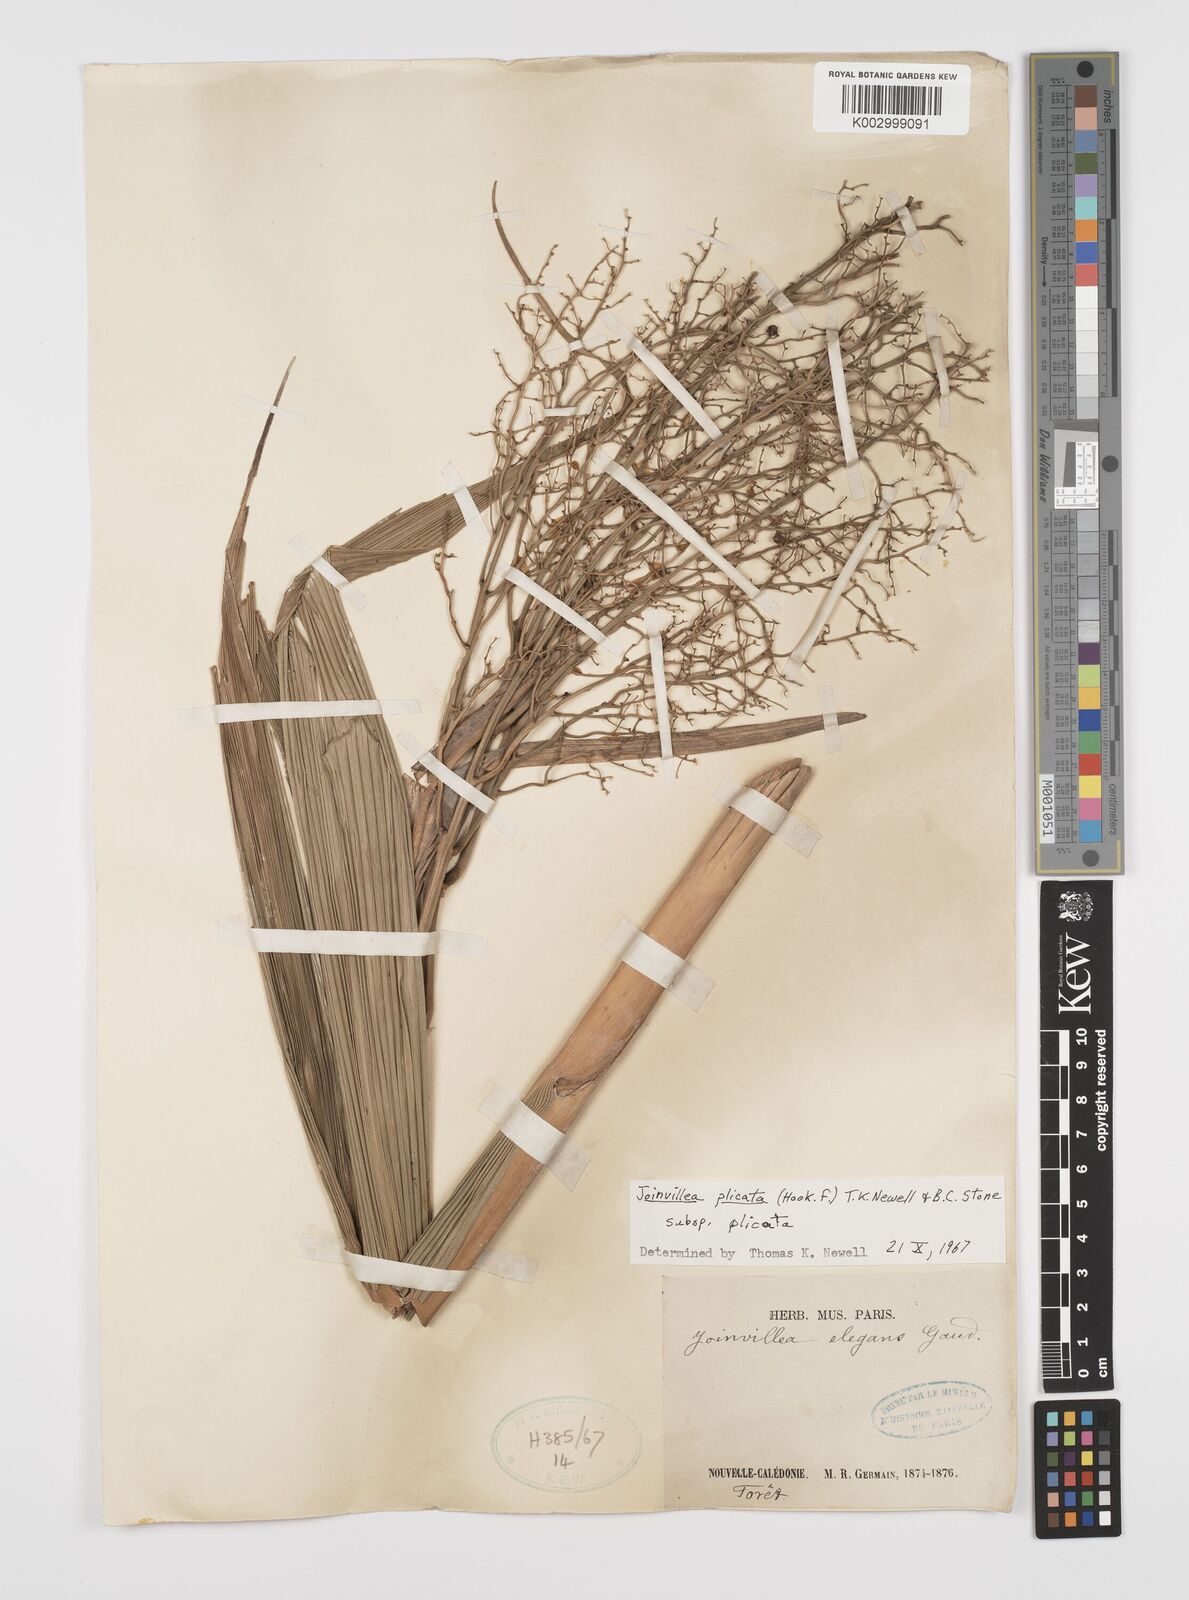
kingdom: Plantae
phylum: Tracheophyta
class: Liliopsida
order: Poales
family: Joinvilleaceae
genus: Joinvillea
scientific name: Joinvillea plicata
